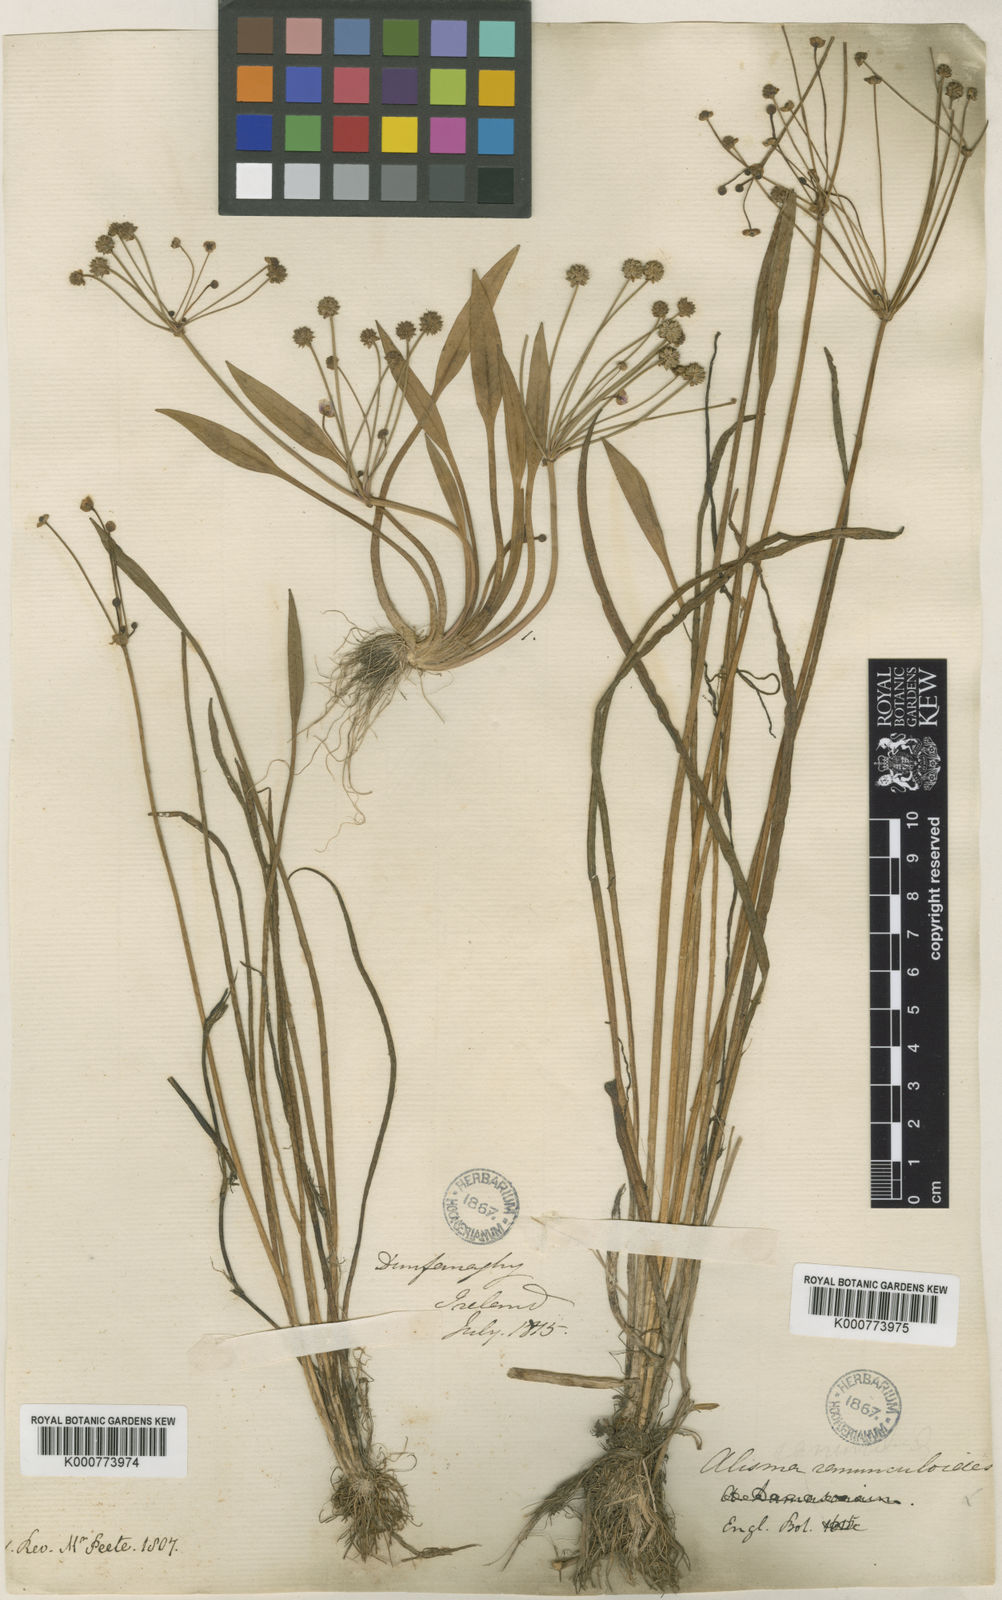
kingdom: Plantae
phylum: Tracheophyta
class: Liliopsida
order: Alismatales
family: Alismataceae
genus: Baldellia
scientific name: Baldellia ranunculoides
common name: Lesser water-plantain
